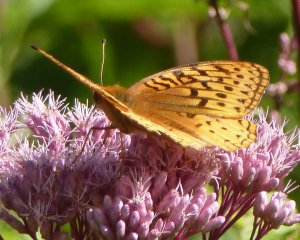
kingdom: Animalia
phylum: Arthropoda
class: Insecta
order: Lepidoptera
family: Nymphalidae
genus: Speyeria
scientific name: Speyeria cybele
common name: Great Spangled Fritillary
